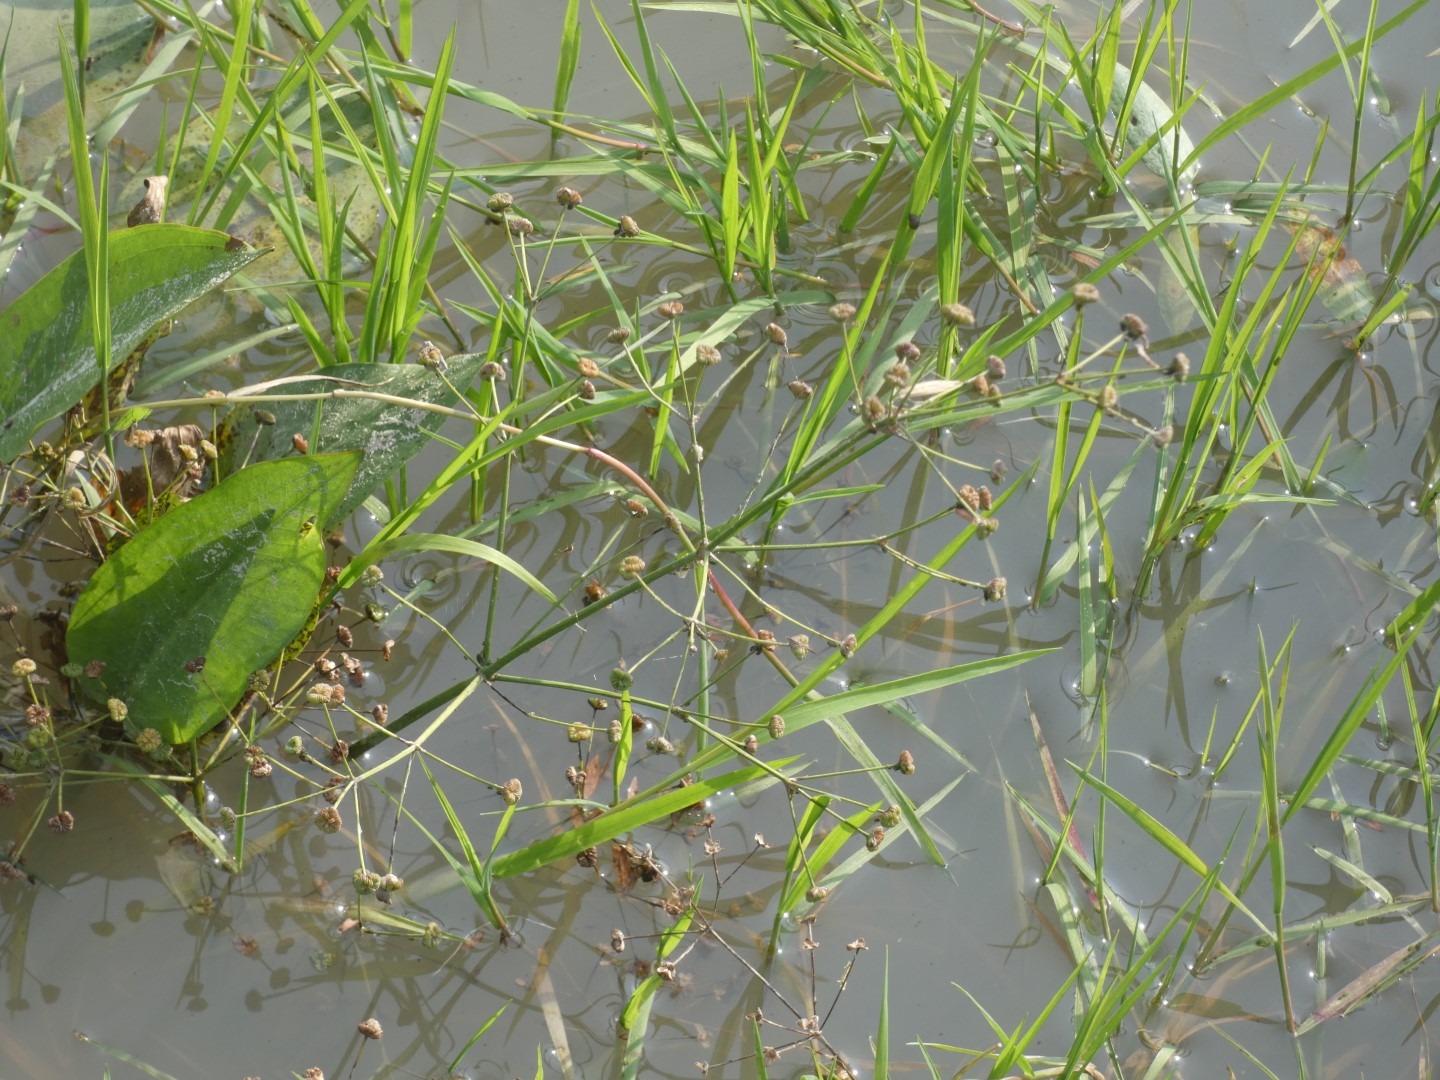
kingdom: Plantae
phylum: Tracheophyta
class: Liliopsida
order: Alismatales
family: Alismataceae
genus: Alisma
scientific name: Alisma plantago-aquatica
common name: Vejbred-skeblad
